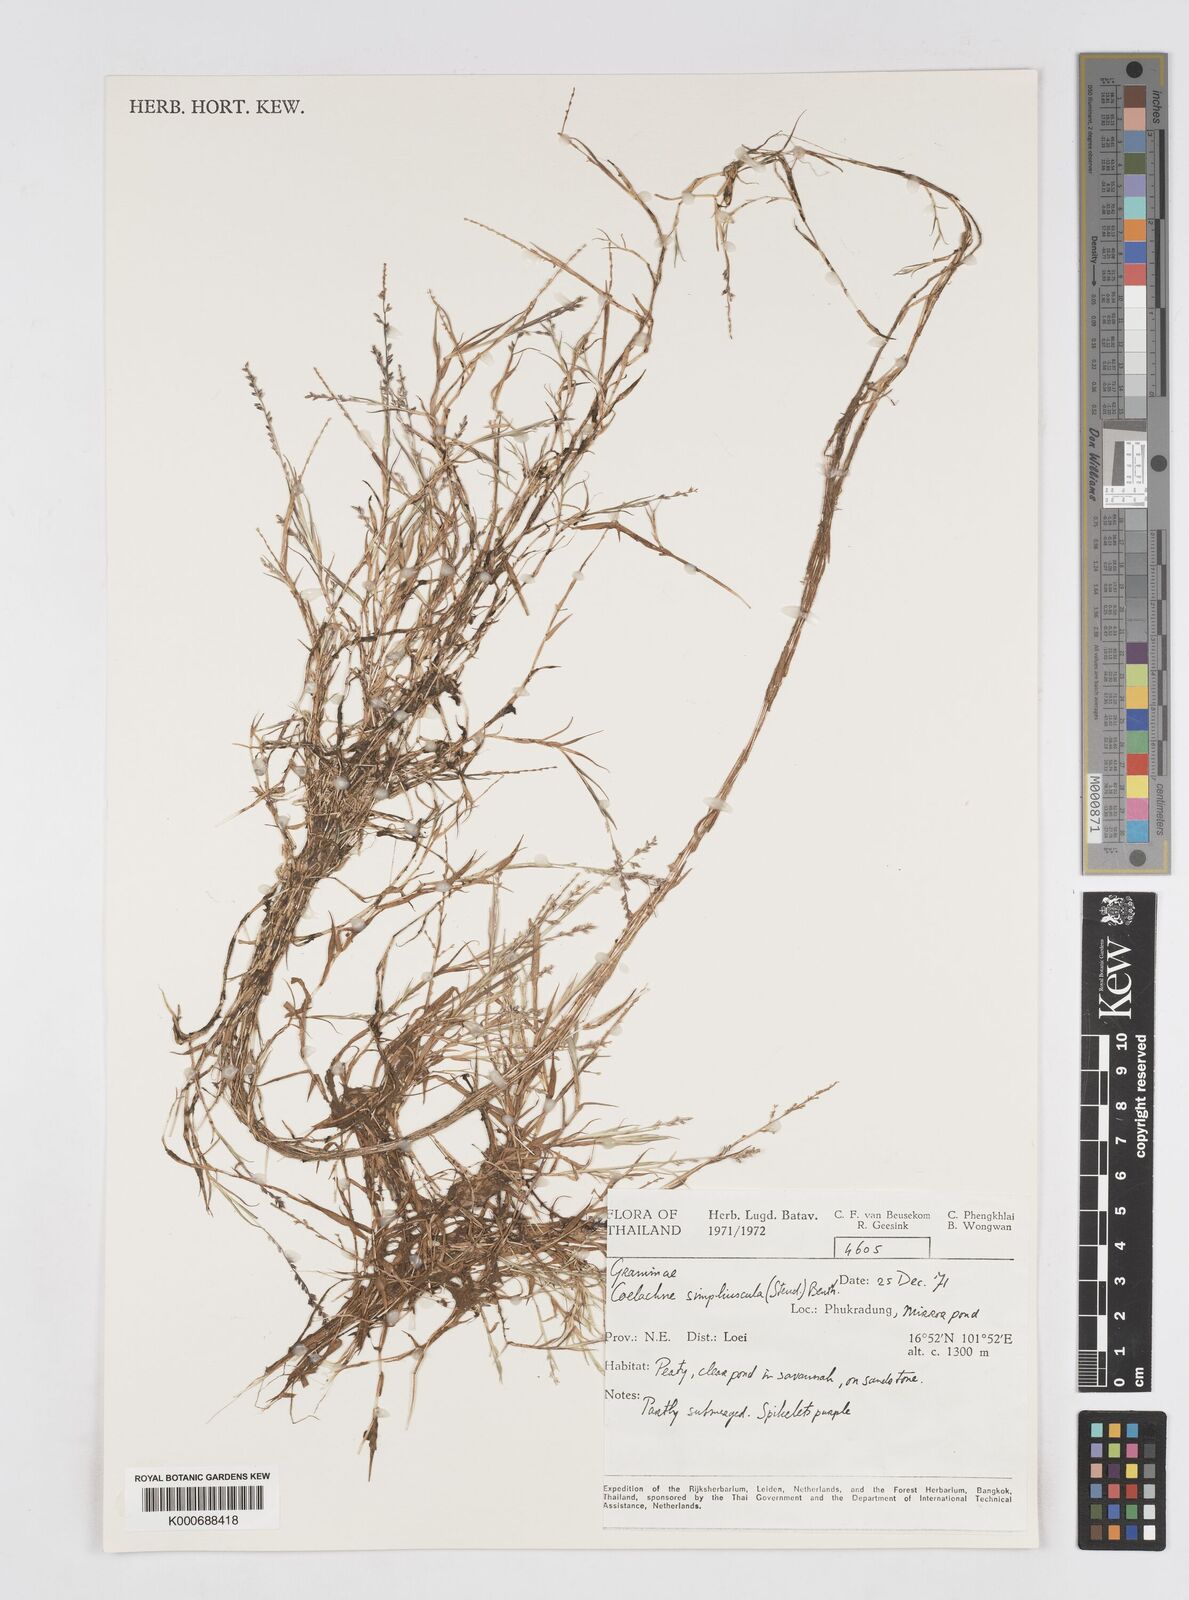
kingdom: Plantae
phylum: Tracheophyta
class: Liliopsida
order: Poales
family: Poaceae
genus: Coelachne
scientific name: Coelachne simpliciuscula
